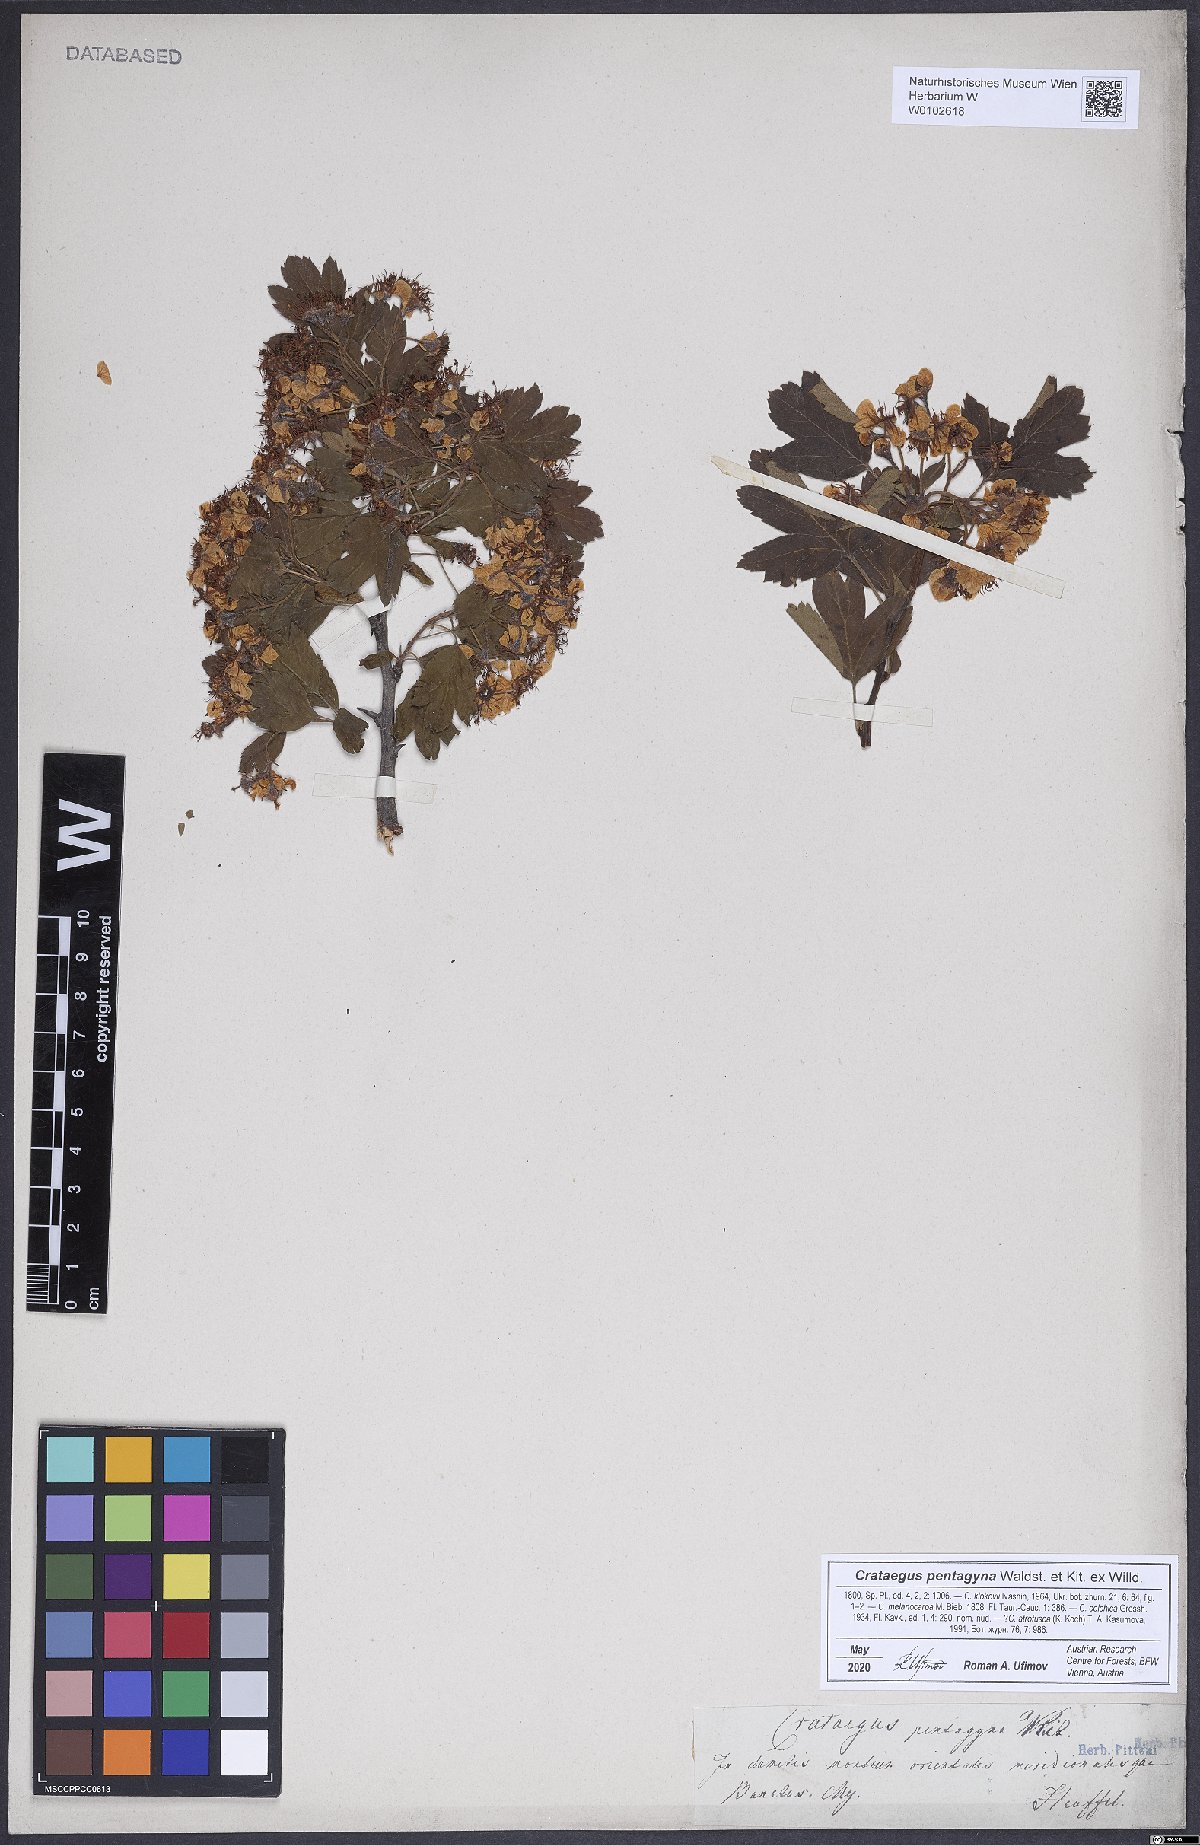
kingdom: Plantae
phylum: Tracheophyta
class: Magnoliopsida
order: Rosales
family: Rosaceae
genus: Crataegus
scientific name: Crataegus pentagyna
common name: Small-flowered black hawthorn
